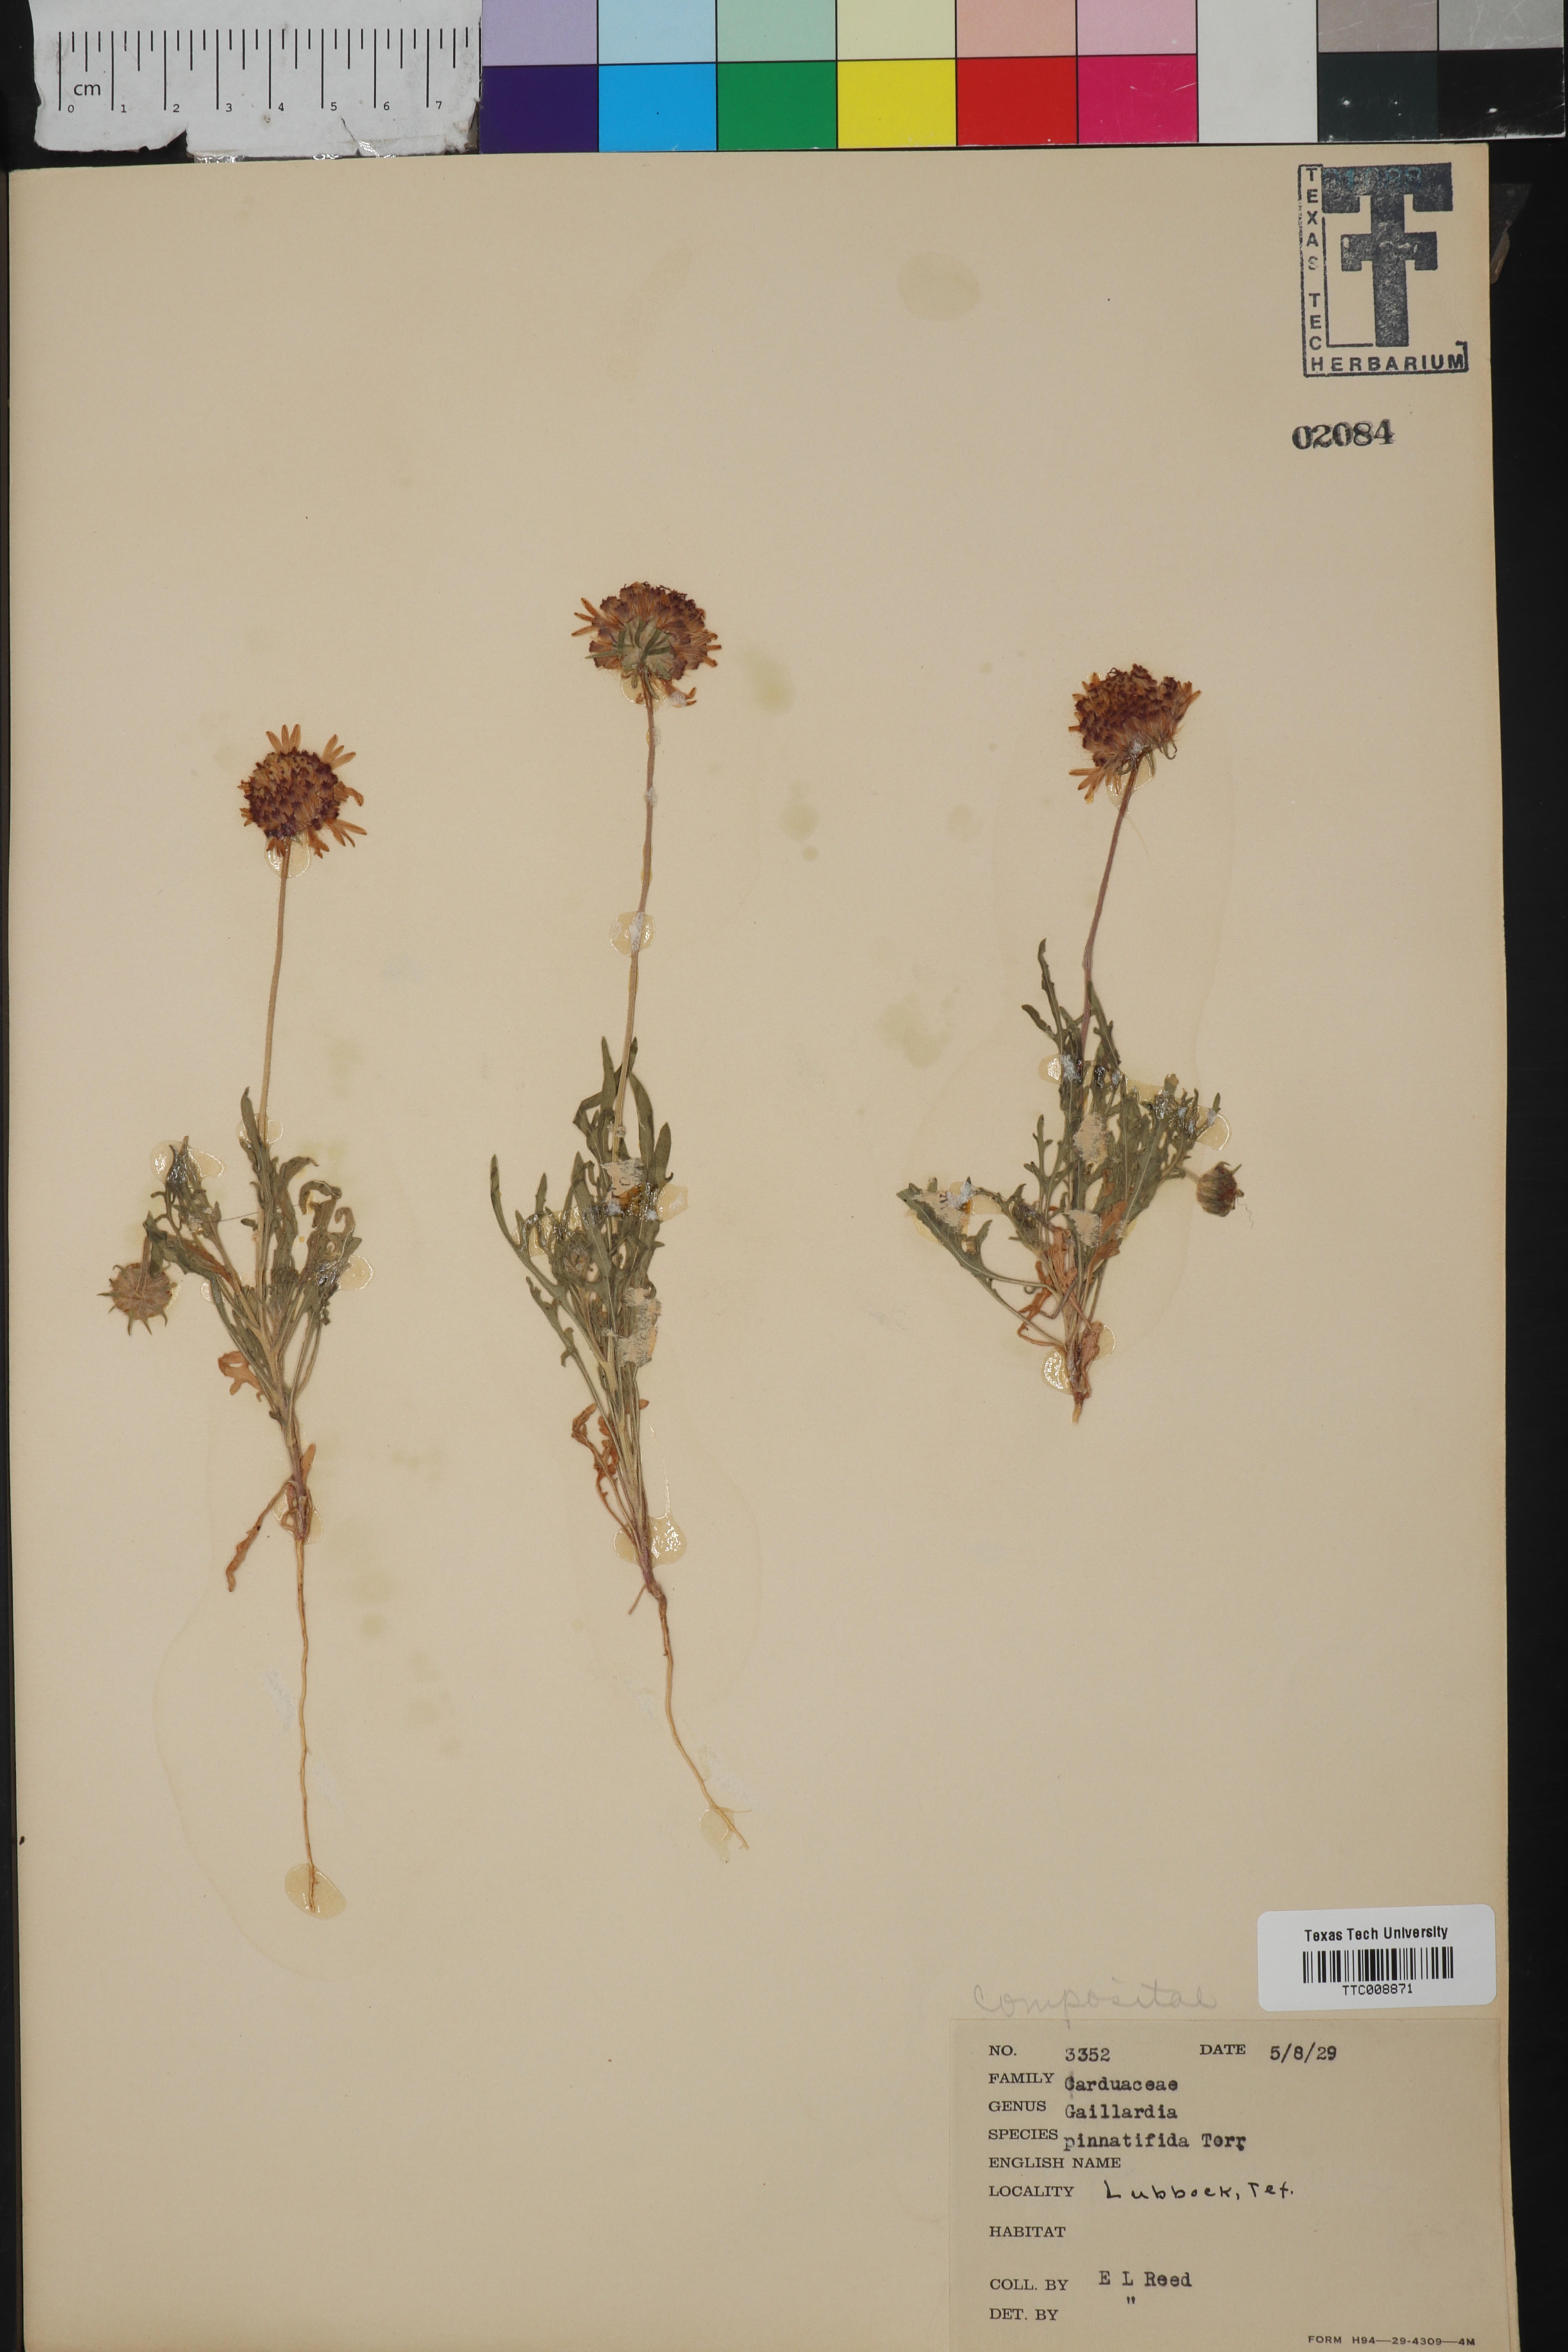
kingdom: Plantae
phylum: Tracheophyta
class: Magnoliopsida
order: Asterales
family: Asteraceae
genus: Gaillardia
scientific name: Gaillardia pinnatifida
